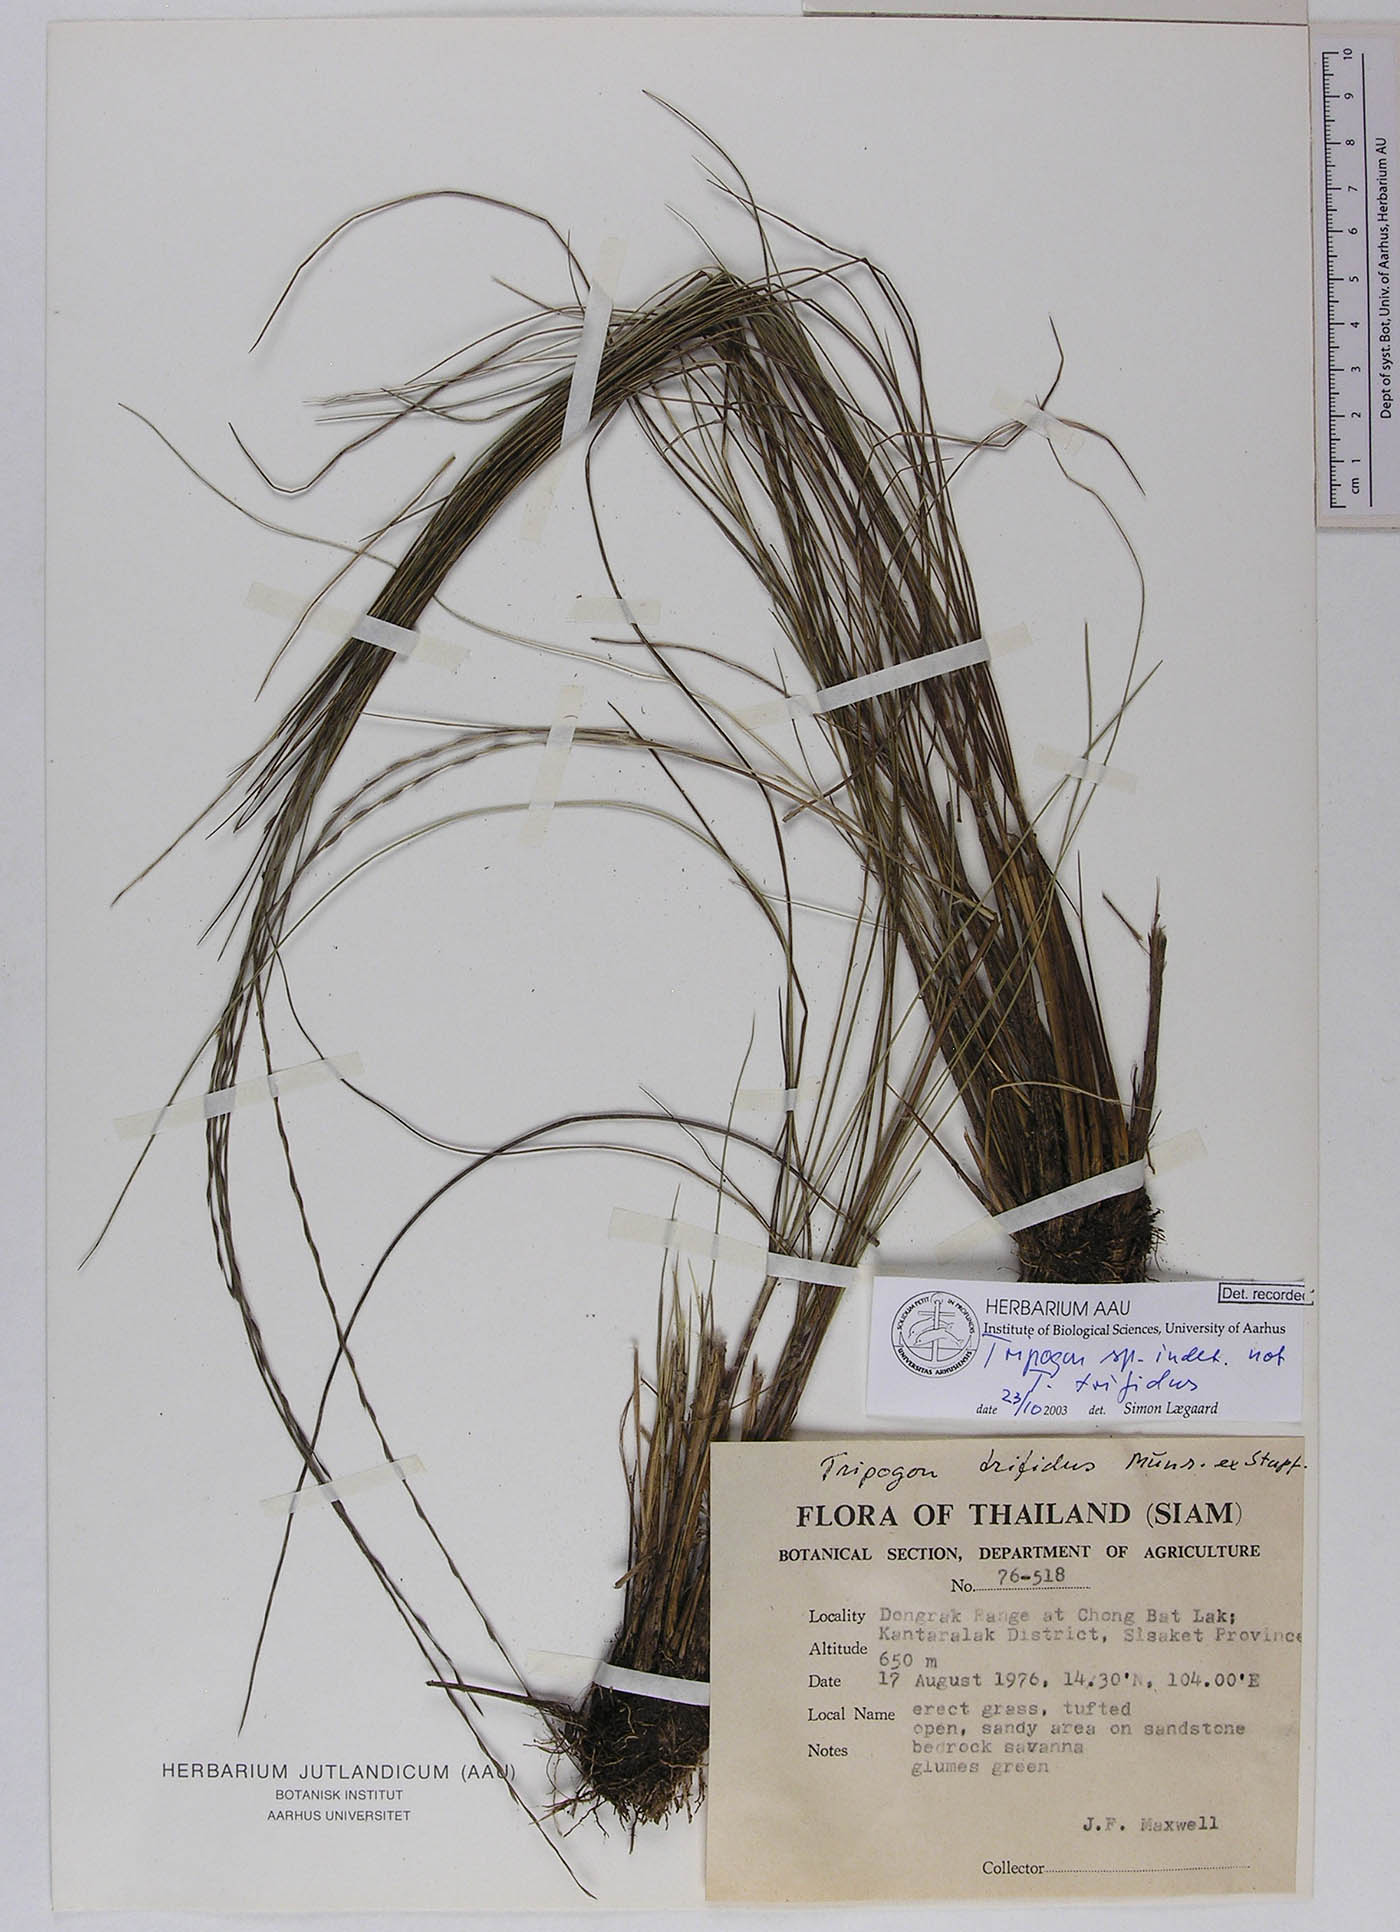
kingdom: Plantae
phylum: Tracheophyta
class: Liliopsida
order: Poales
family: Poaceae
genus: Tripogon
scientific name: Tripogon
